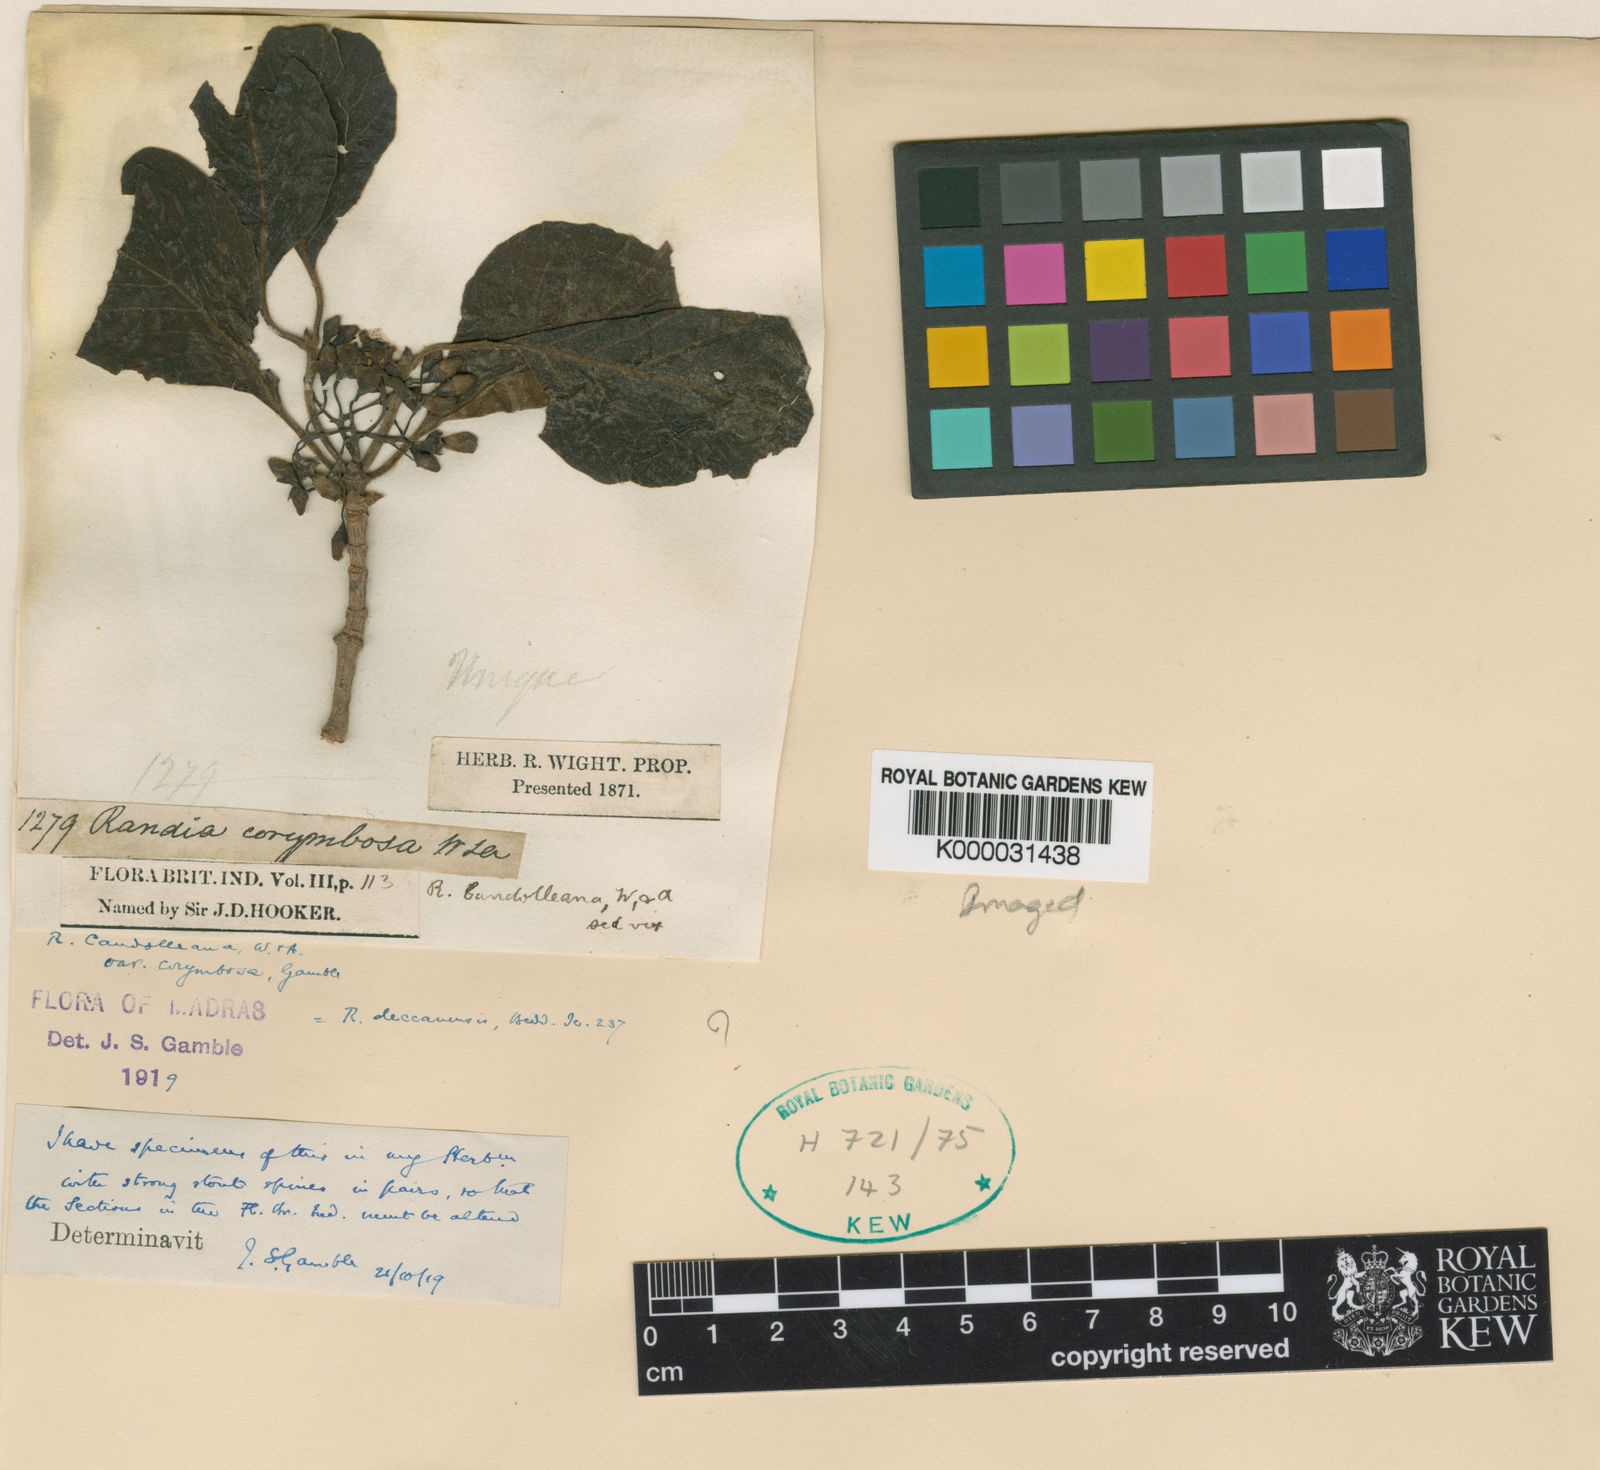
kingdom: Plantae
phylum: Tracheophyta
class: Magnoliopsida
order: Gentianales
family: Rubiaceae
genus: Deccania
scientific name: Deccania
